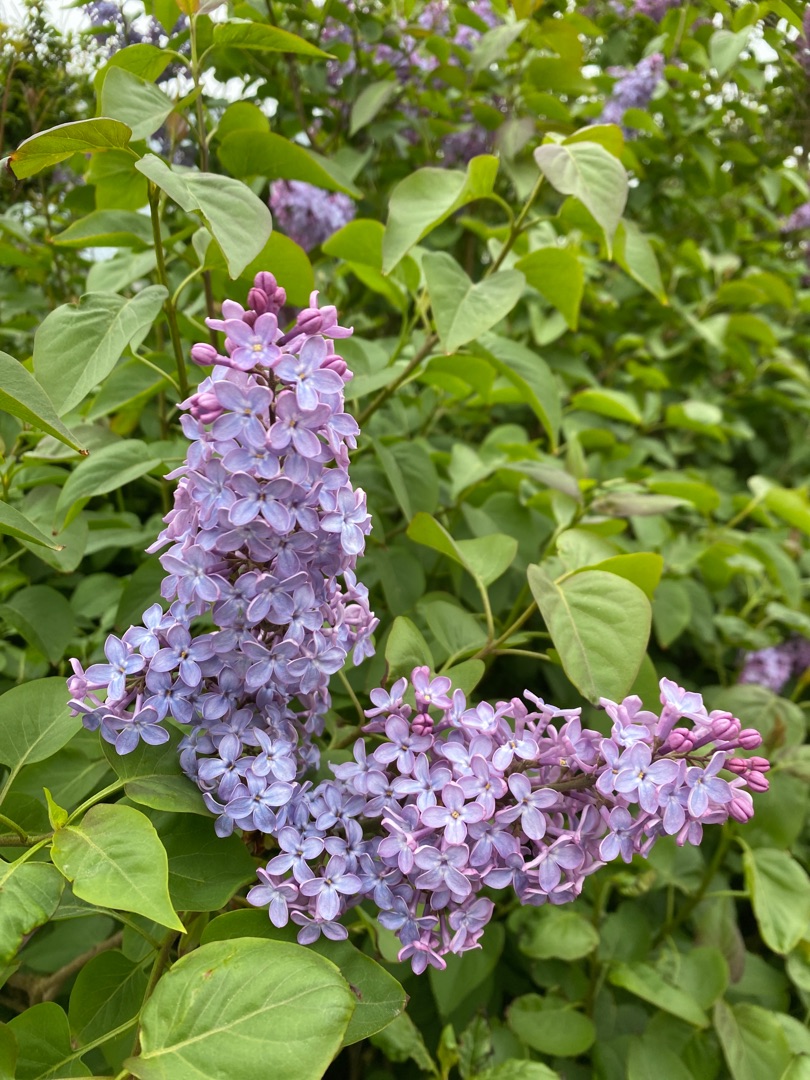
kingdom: Plantae
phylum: Tracheophyta
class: Magnoliopsida
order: Lamiales
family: Oleaceae
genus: Syringa
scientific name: Syringa vulgaris
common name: Syren
